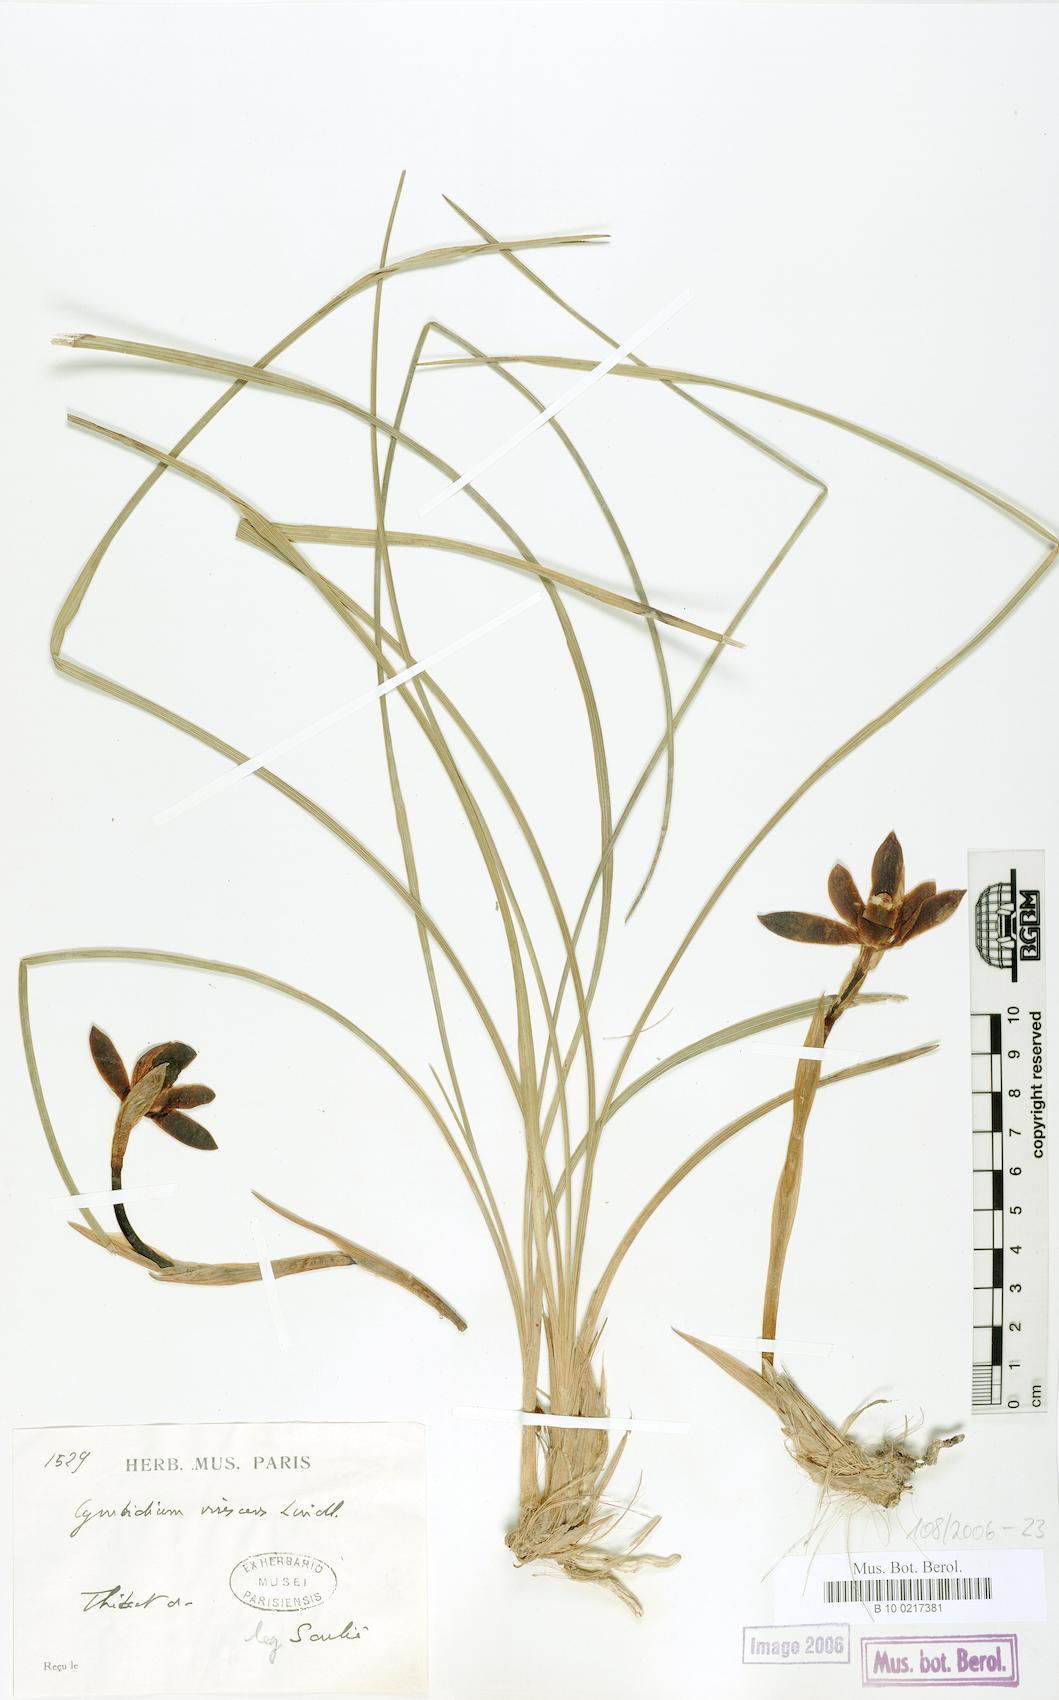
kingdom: Plantae
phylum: Tracheophyta
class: Liliopsida
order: Asparagales
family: Orchidaceae
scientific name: Orchidaceae
